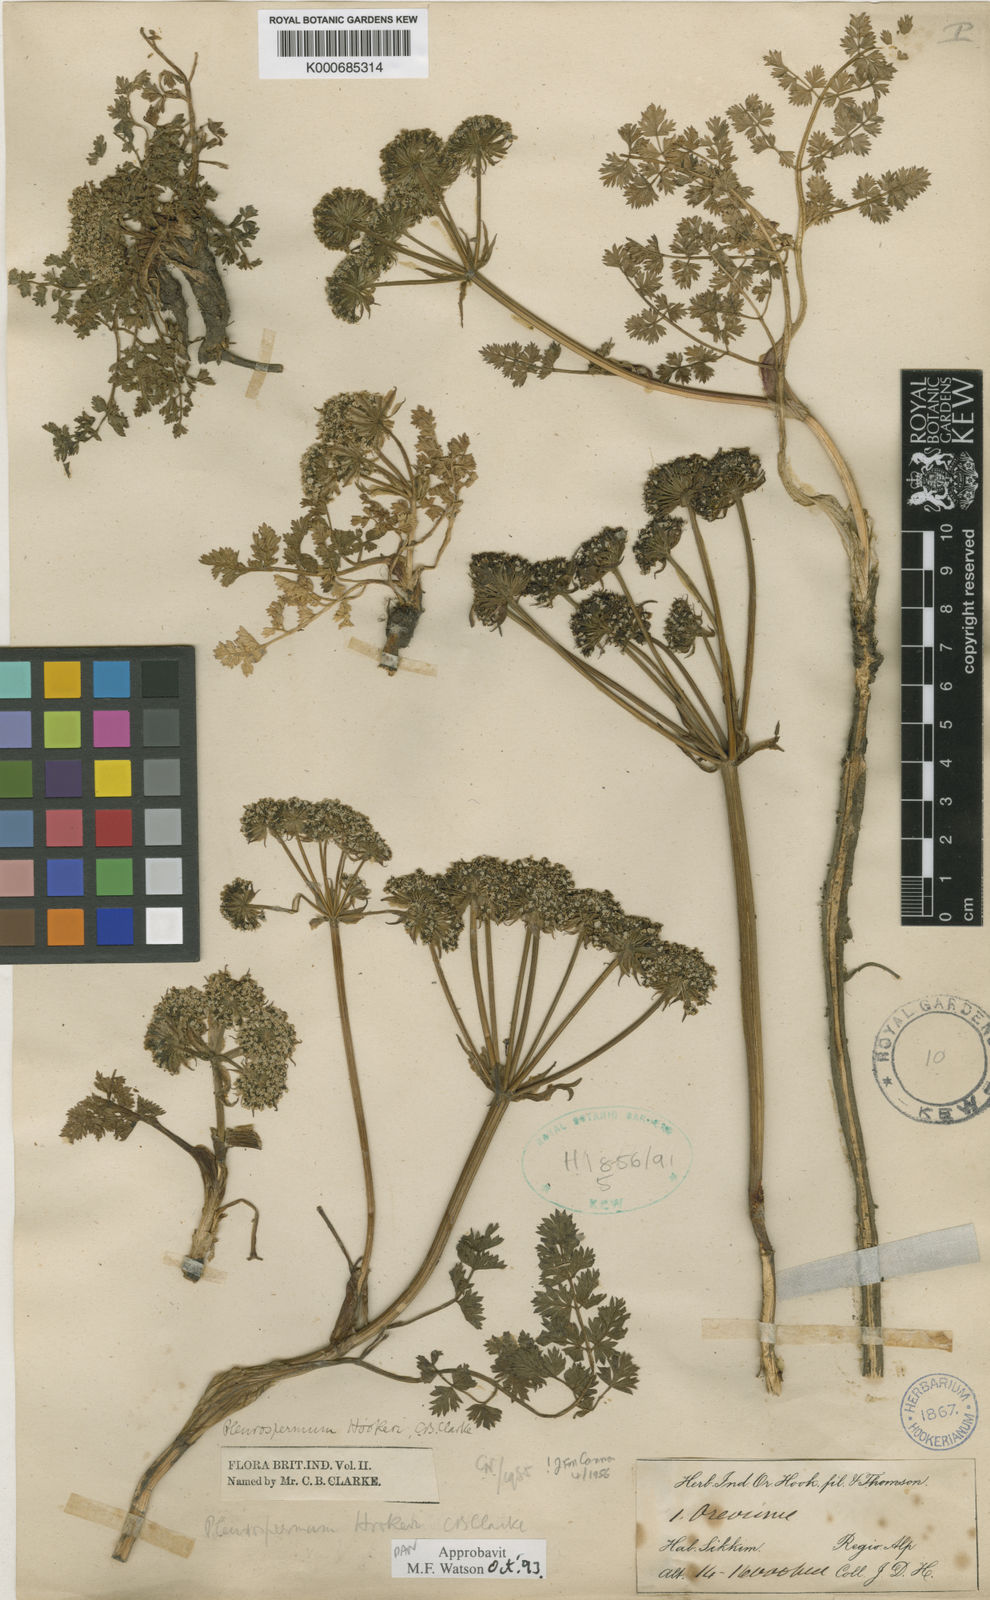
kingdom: Plantae
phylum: Tracheophyta
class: Magnoliopsida
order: Apiales
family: Apiaceae
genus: Pleurospermum
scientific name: Pleurospermum hookeri
